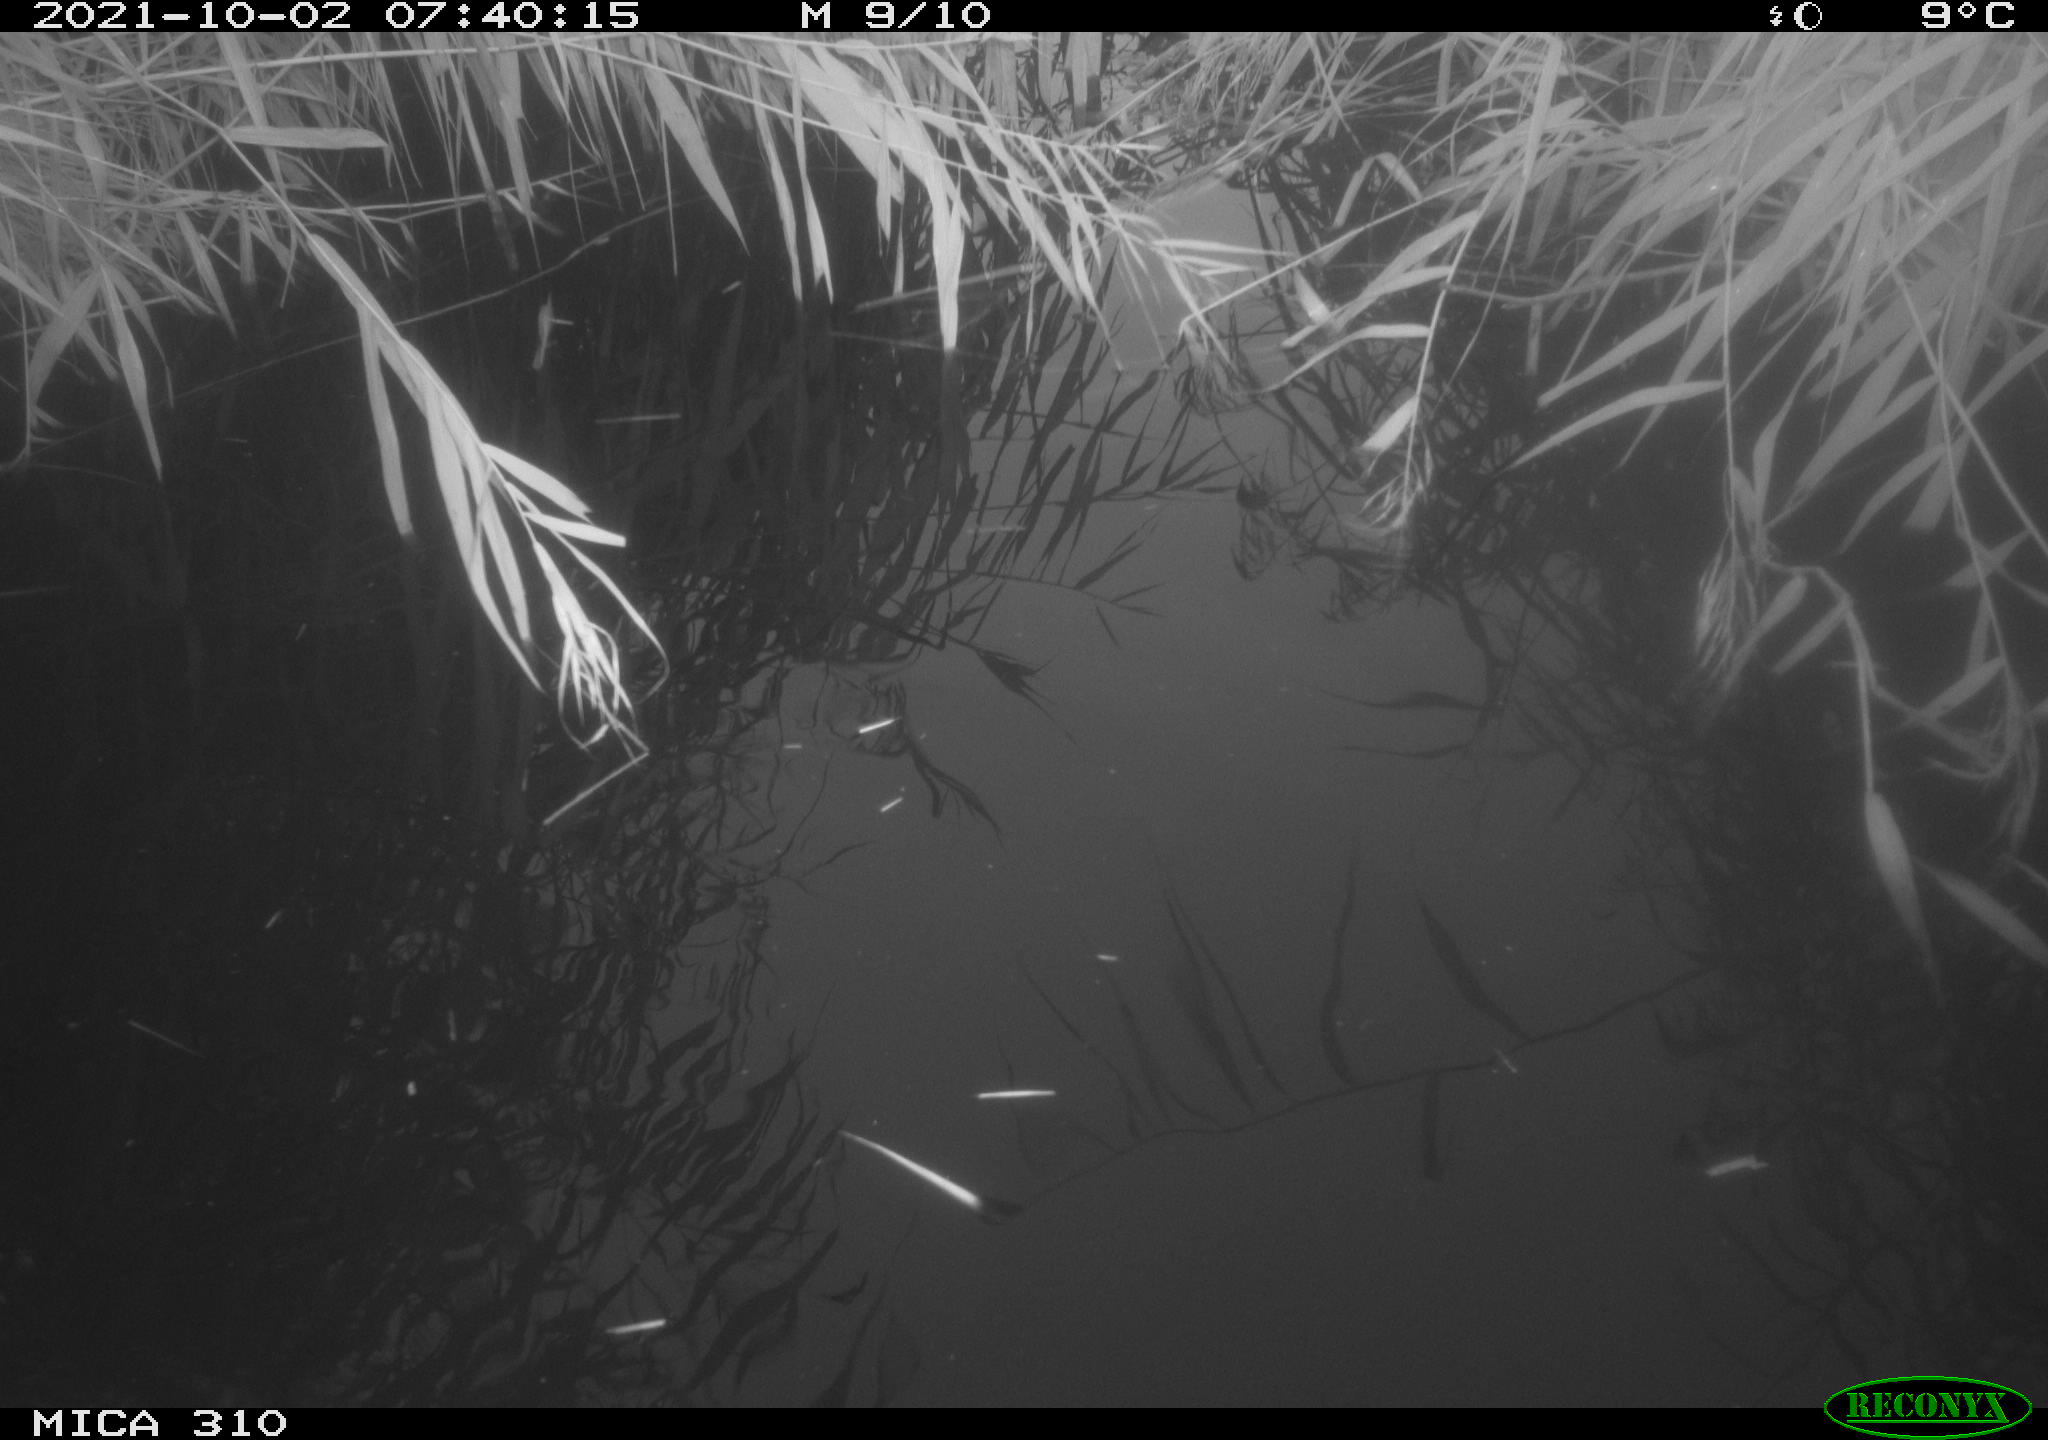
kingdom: Animalia
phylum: Chordata
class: Aves
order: Gruiformes
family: Rallidae
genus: Gallinula
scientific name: Gallinula chloropus
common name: Common moorhen
